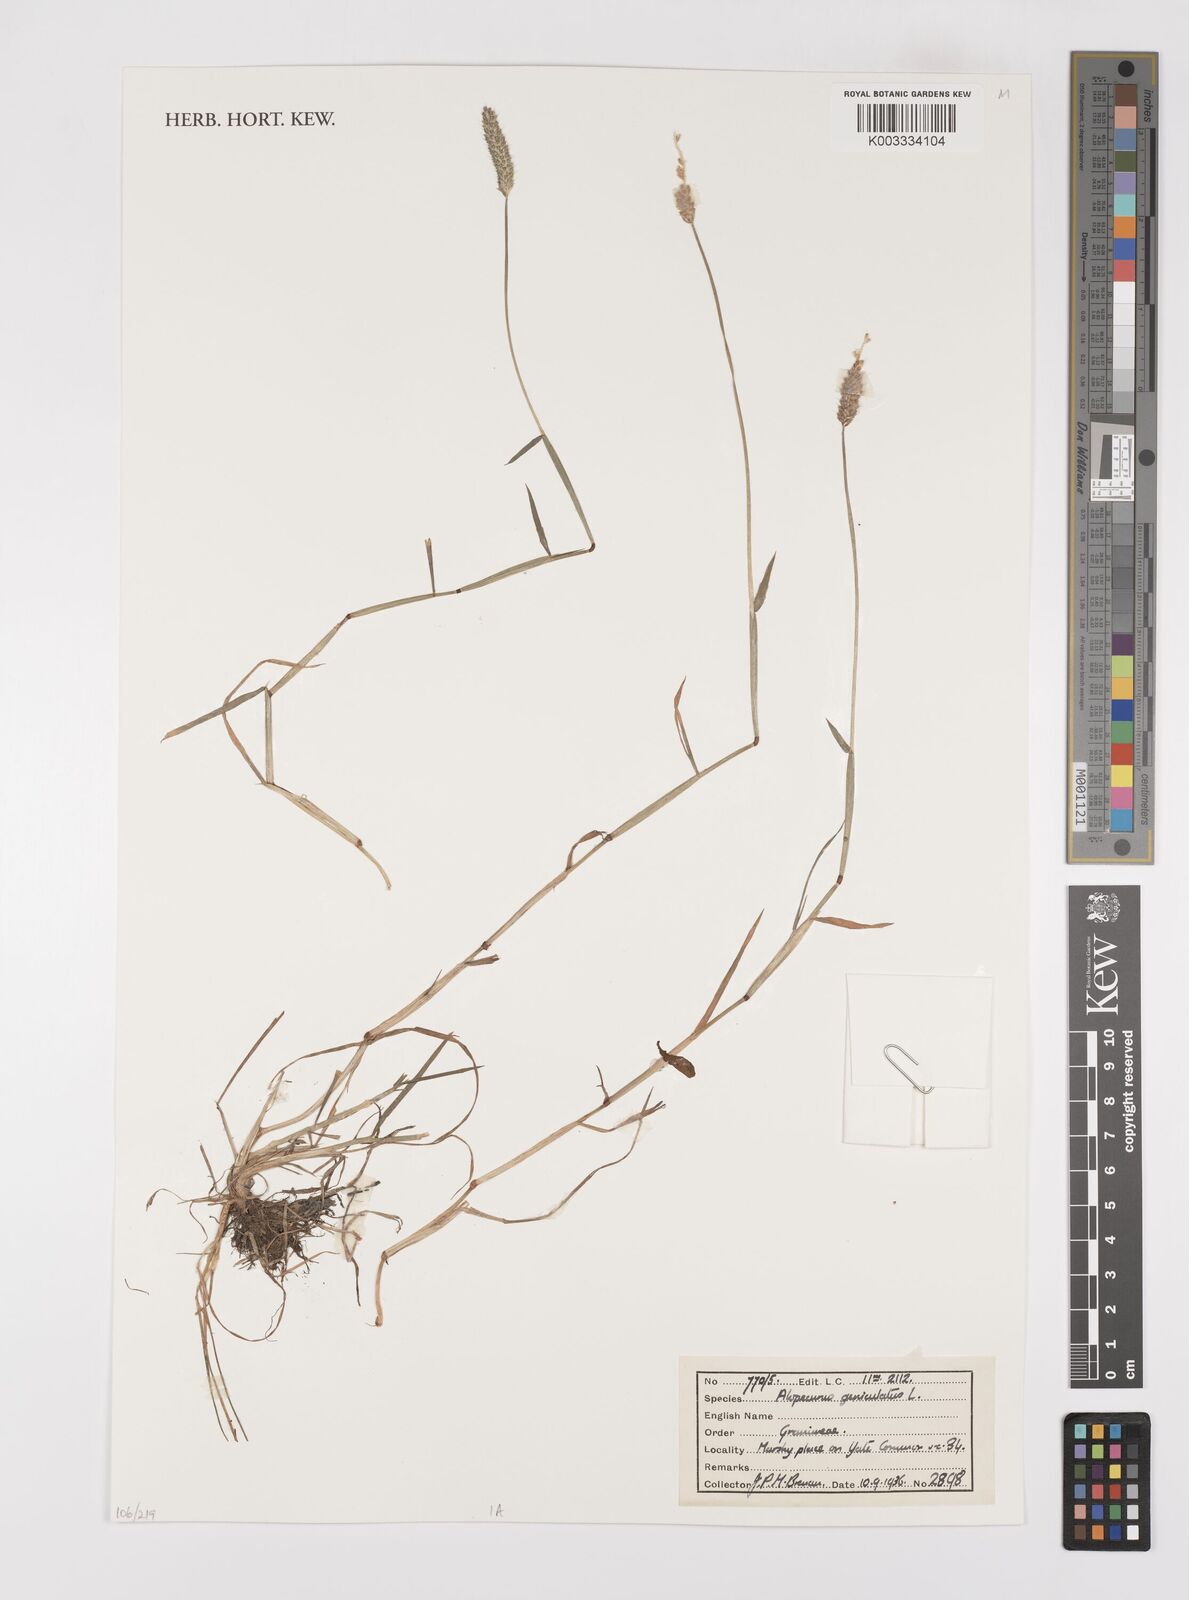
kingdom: Plantae
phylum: Tracheophyta
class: Liliopsida
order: Poales
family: Poaceae
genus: Alopecurus
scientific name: Alopecurus geniculatus
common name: Water foxtail
